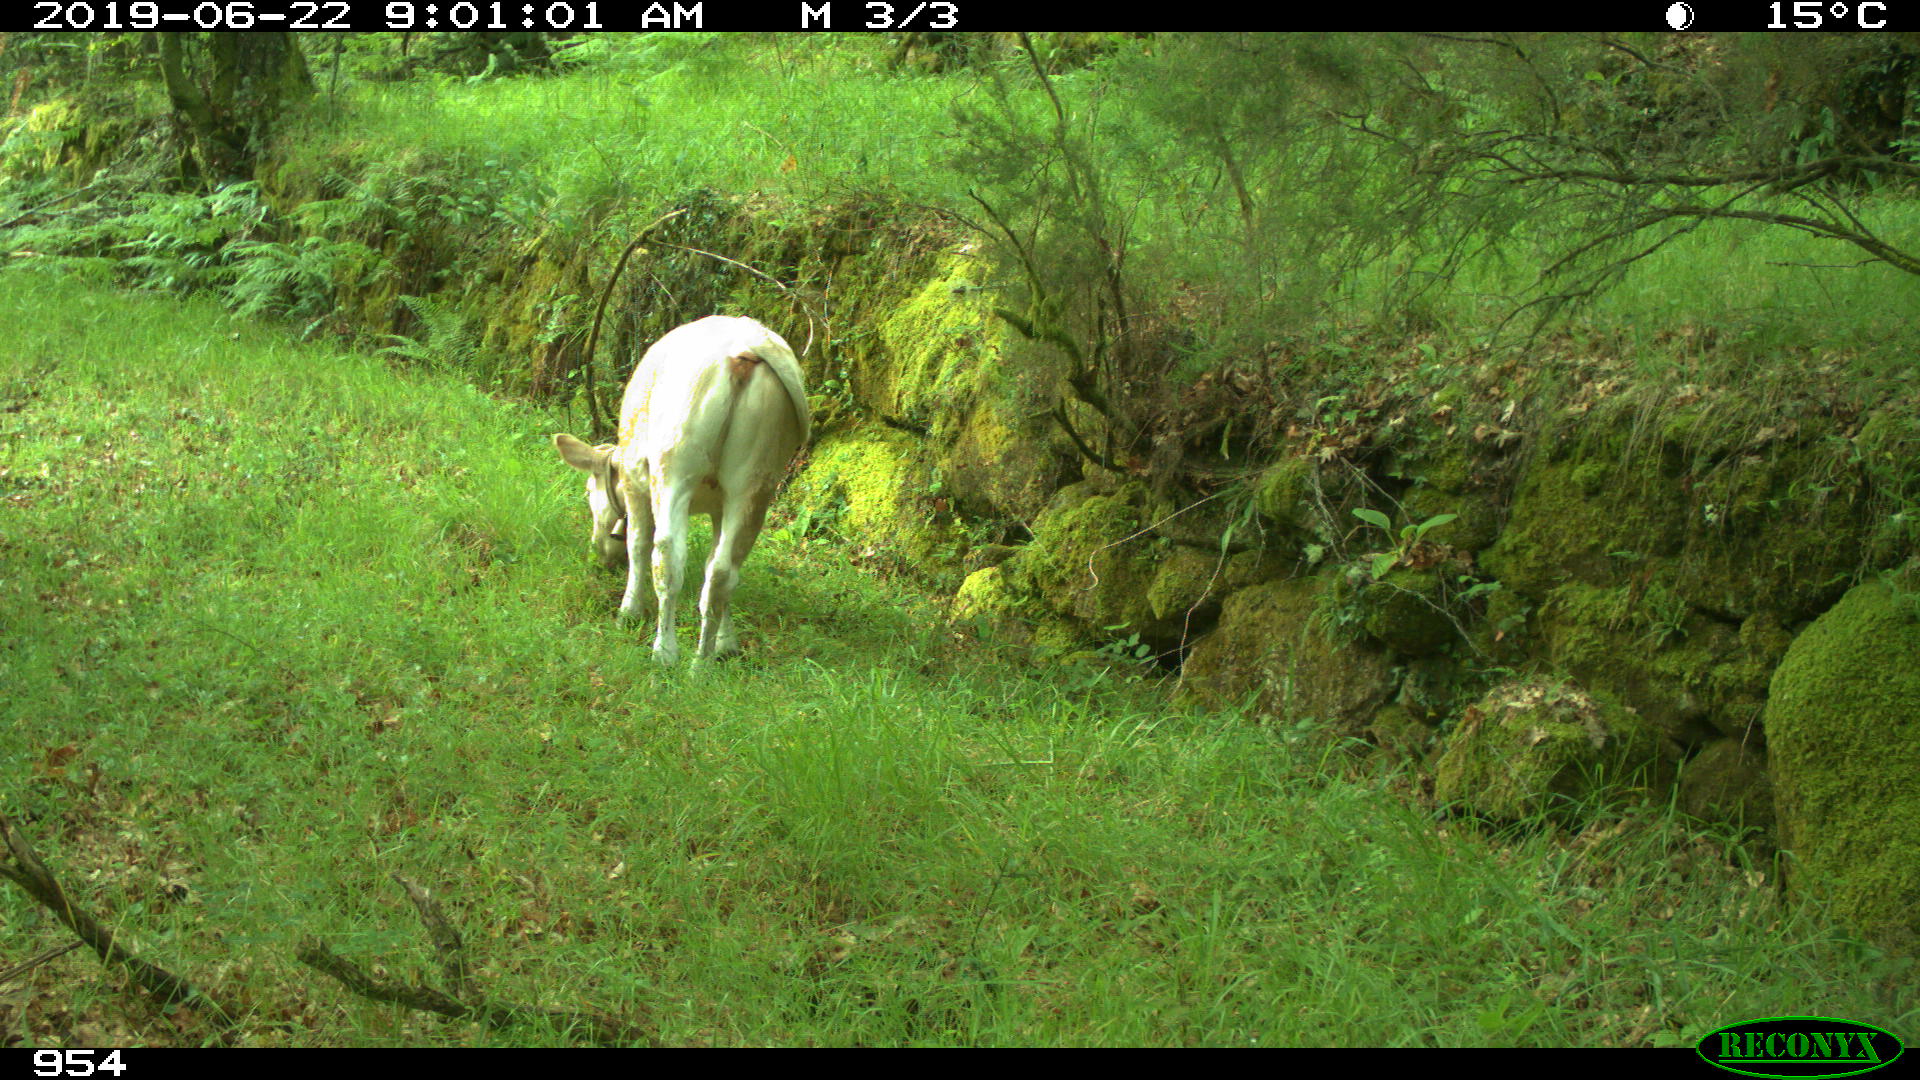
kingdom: Animalia
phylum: Chordata
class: Mammalia
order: Artiodactyla
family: Bovidae
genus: Bos
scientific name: Bos taurus
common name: Domesticated cattle
